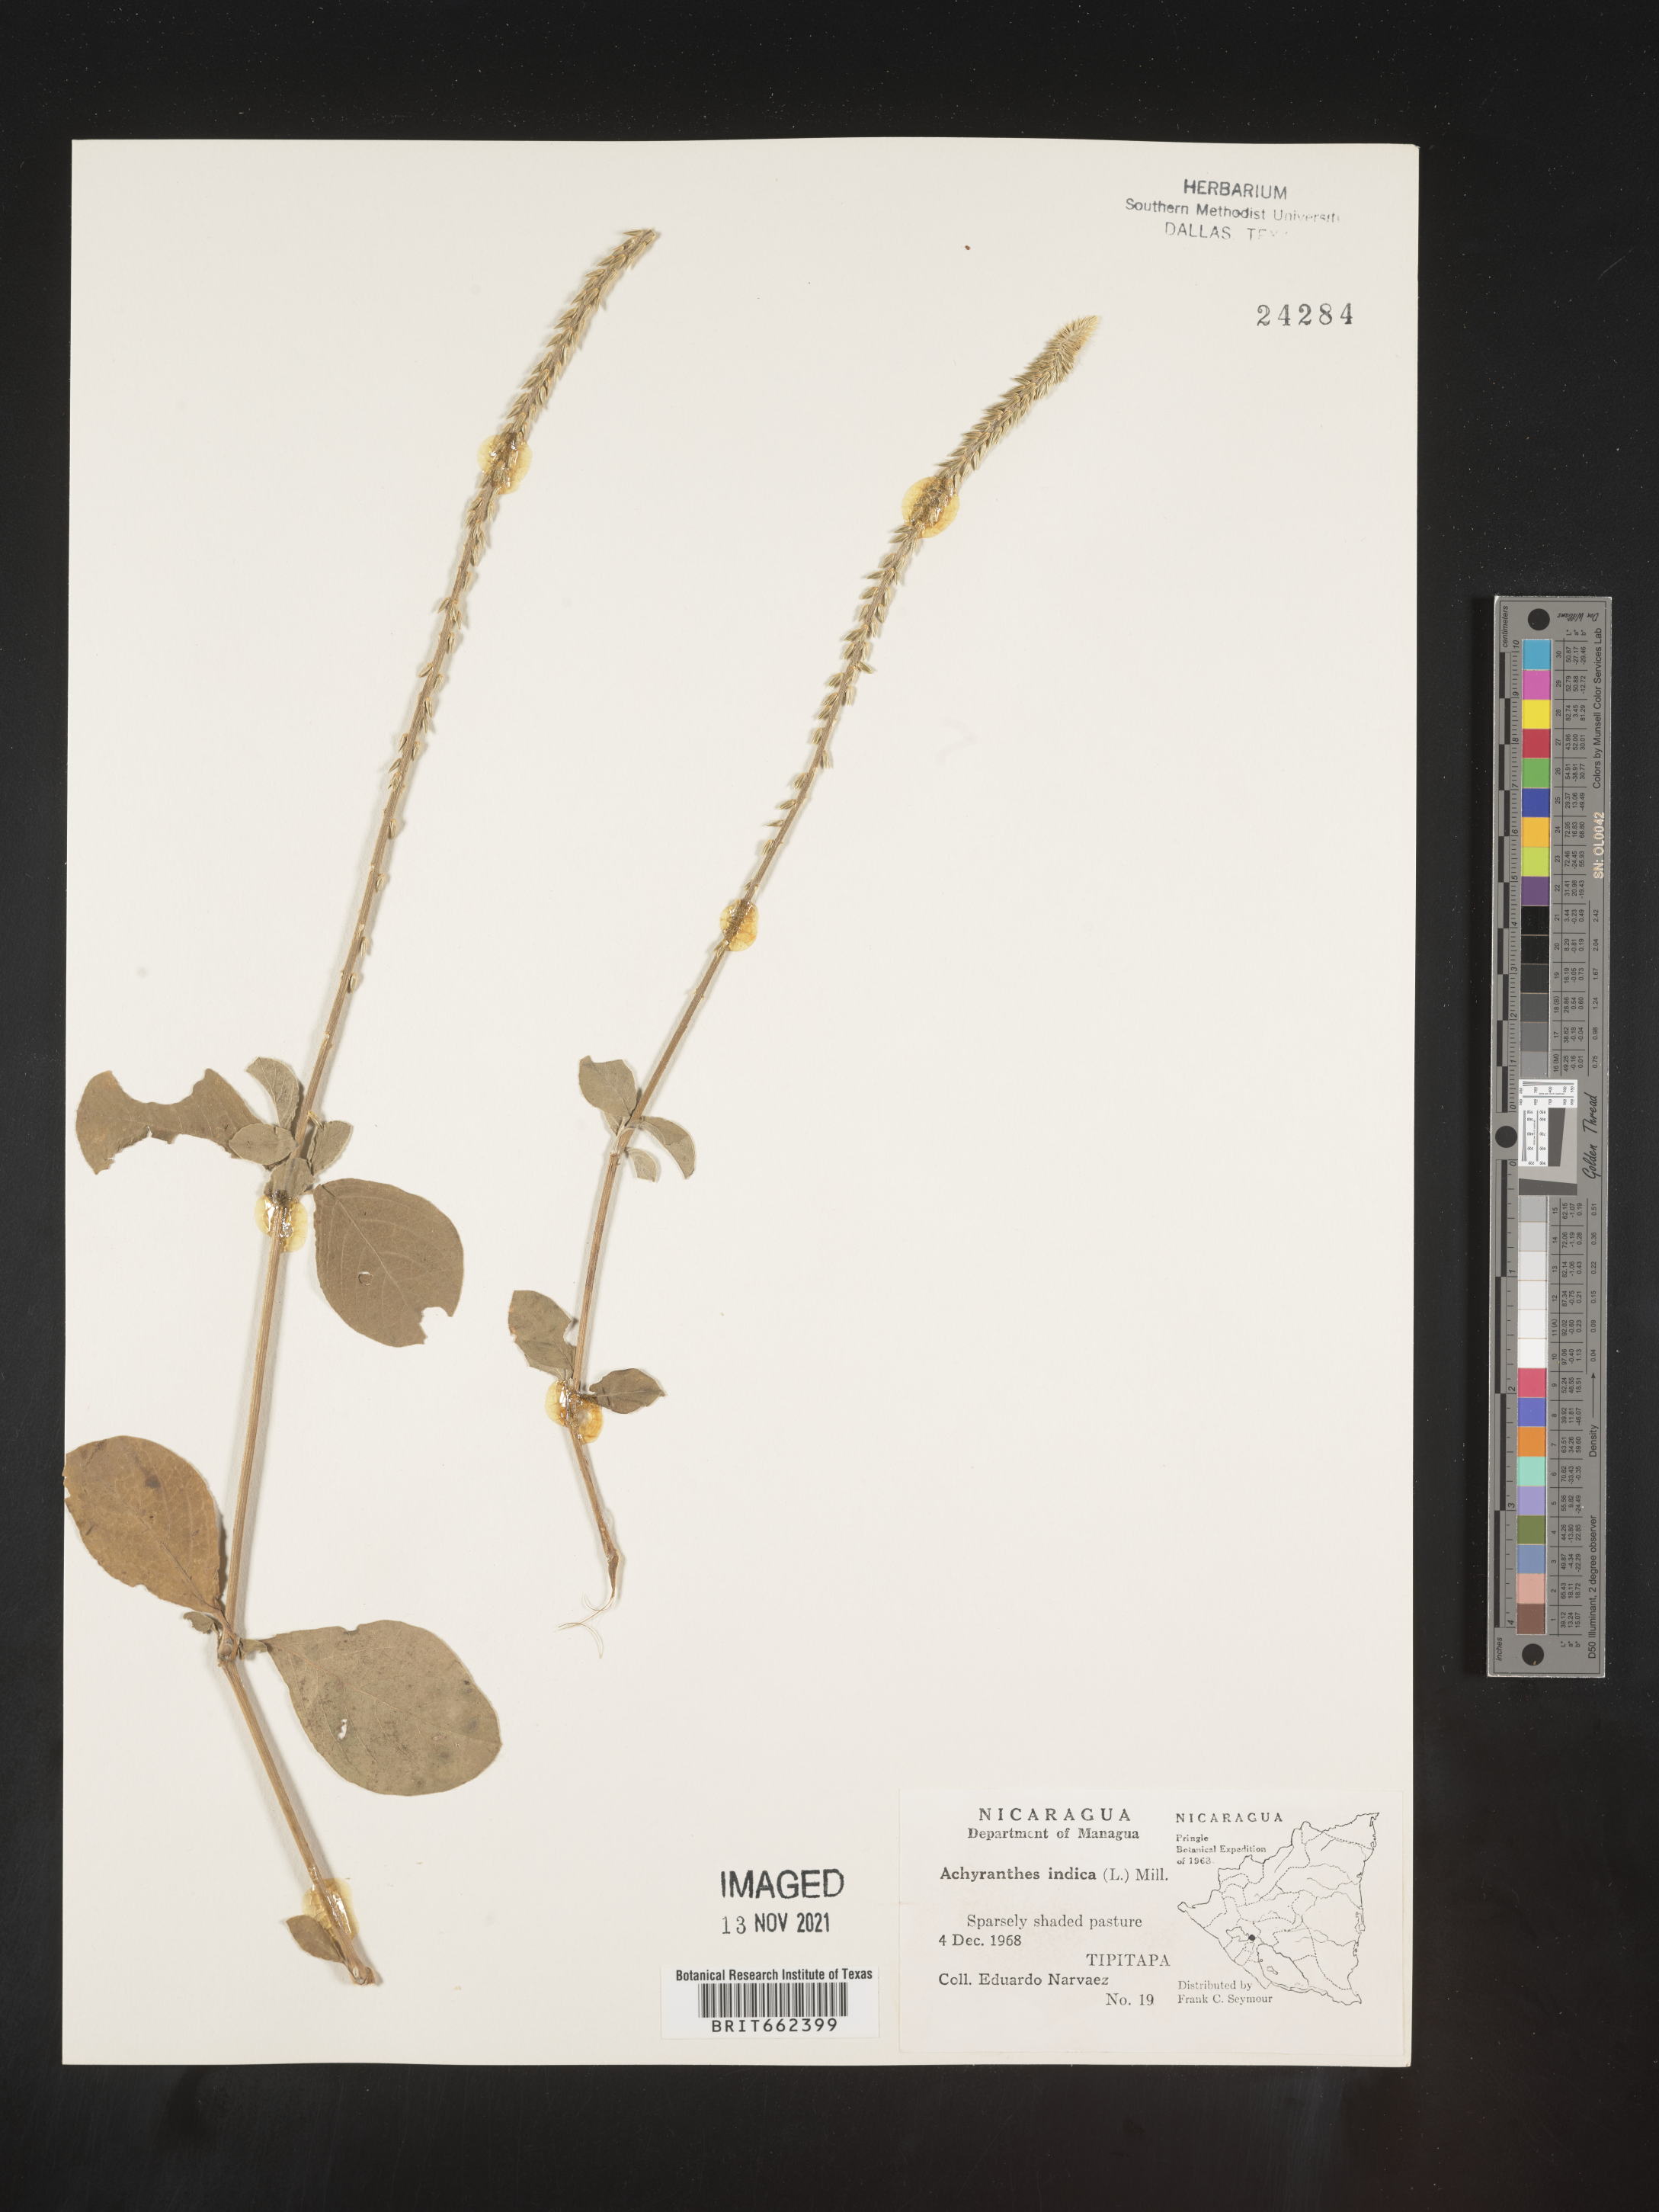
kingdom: Plantae
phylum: Tracheophyta
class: Magnoliopsida
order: Caryophyllales
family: Amaranthaceae
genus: Achyranthes
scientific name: Achyranthes
